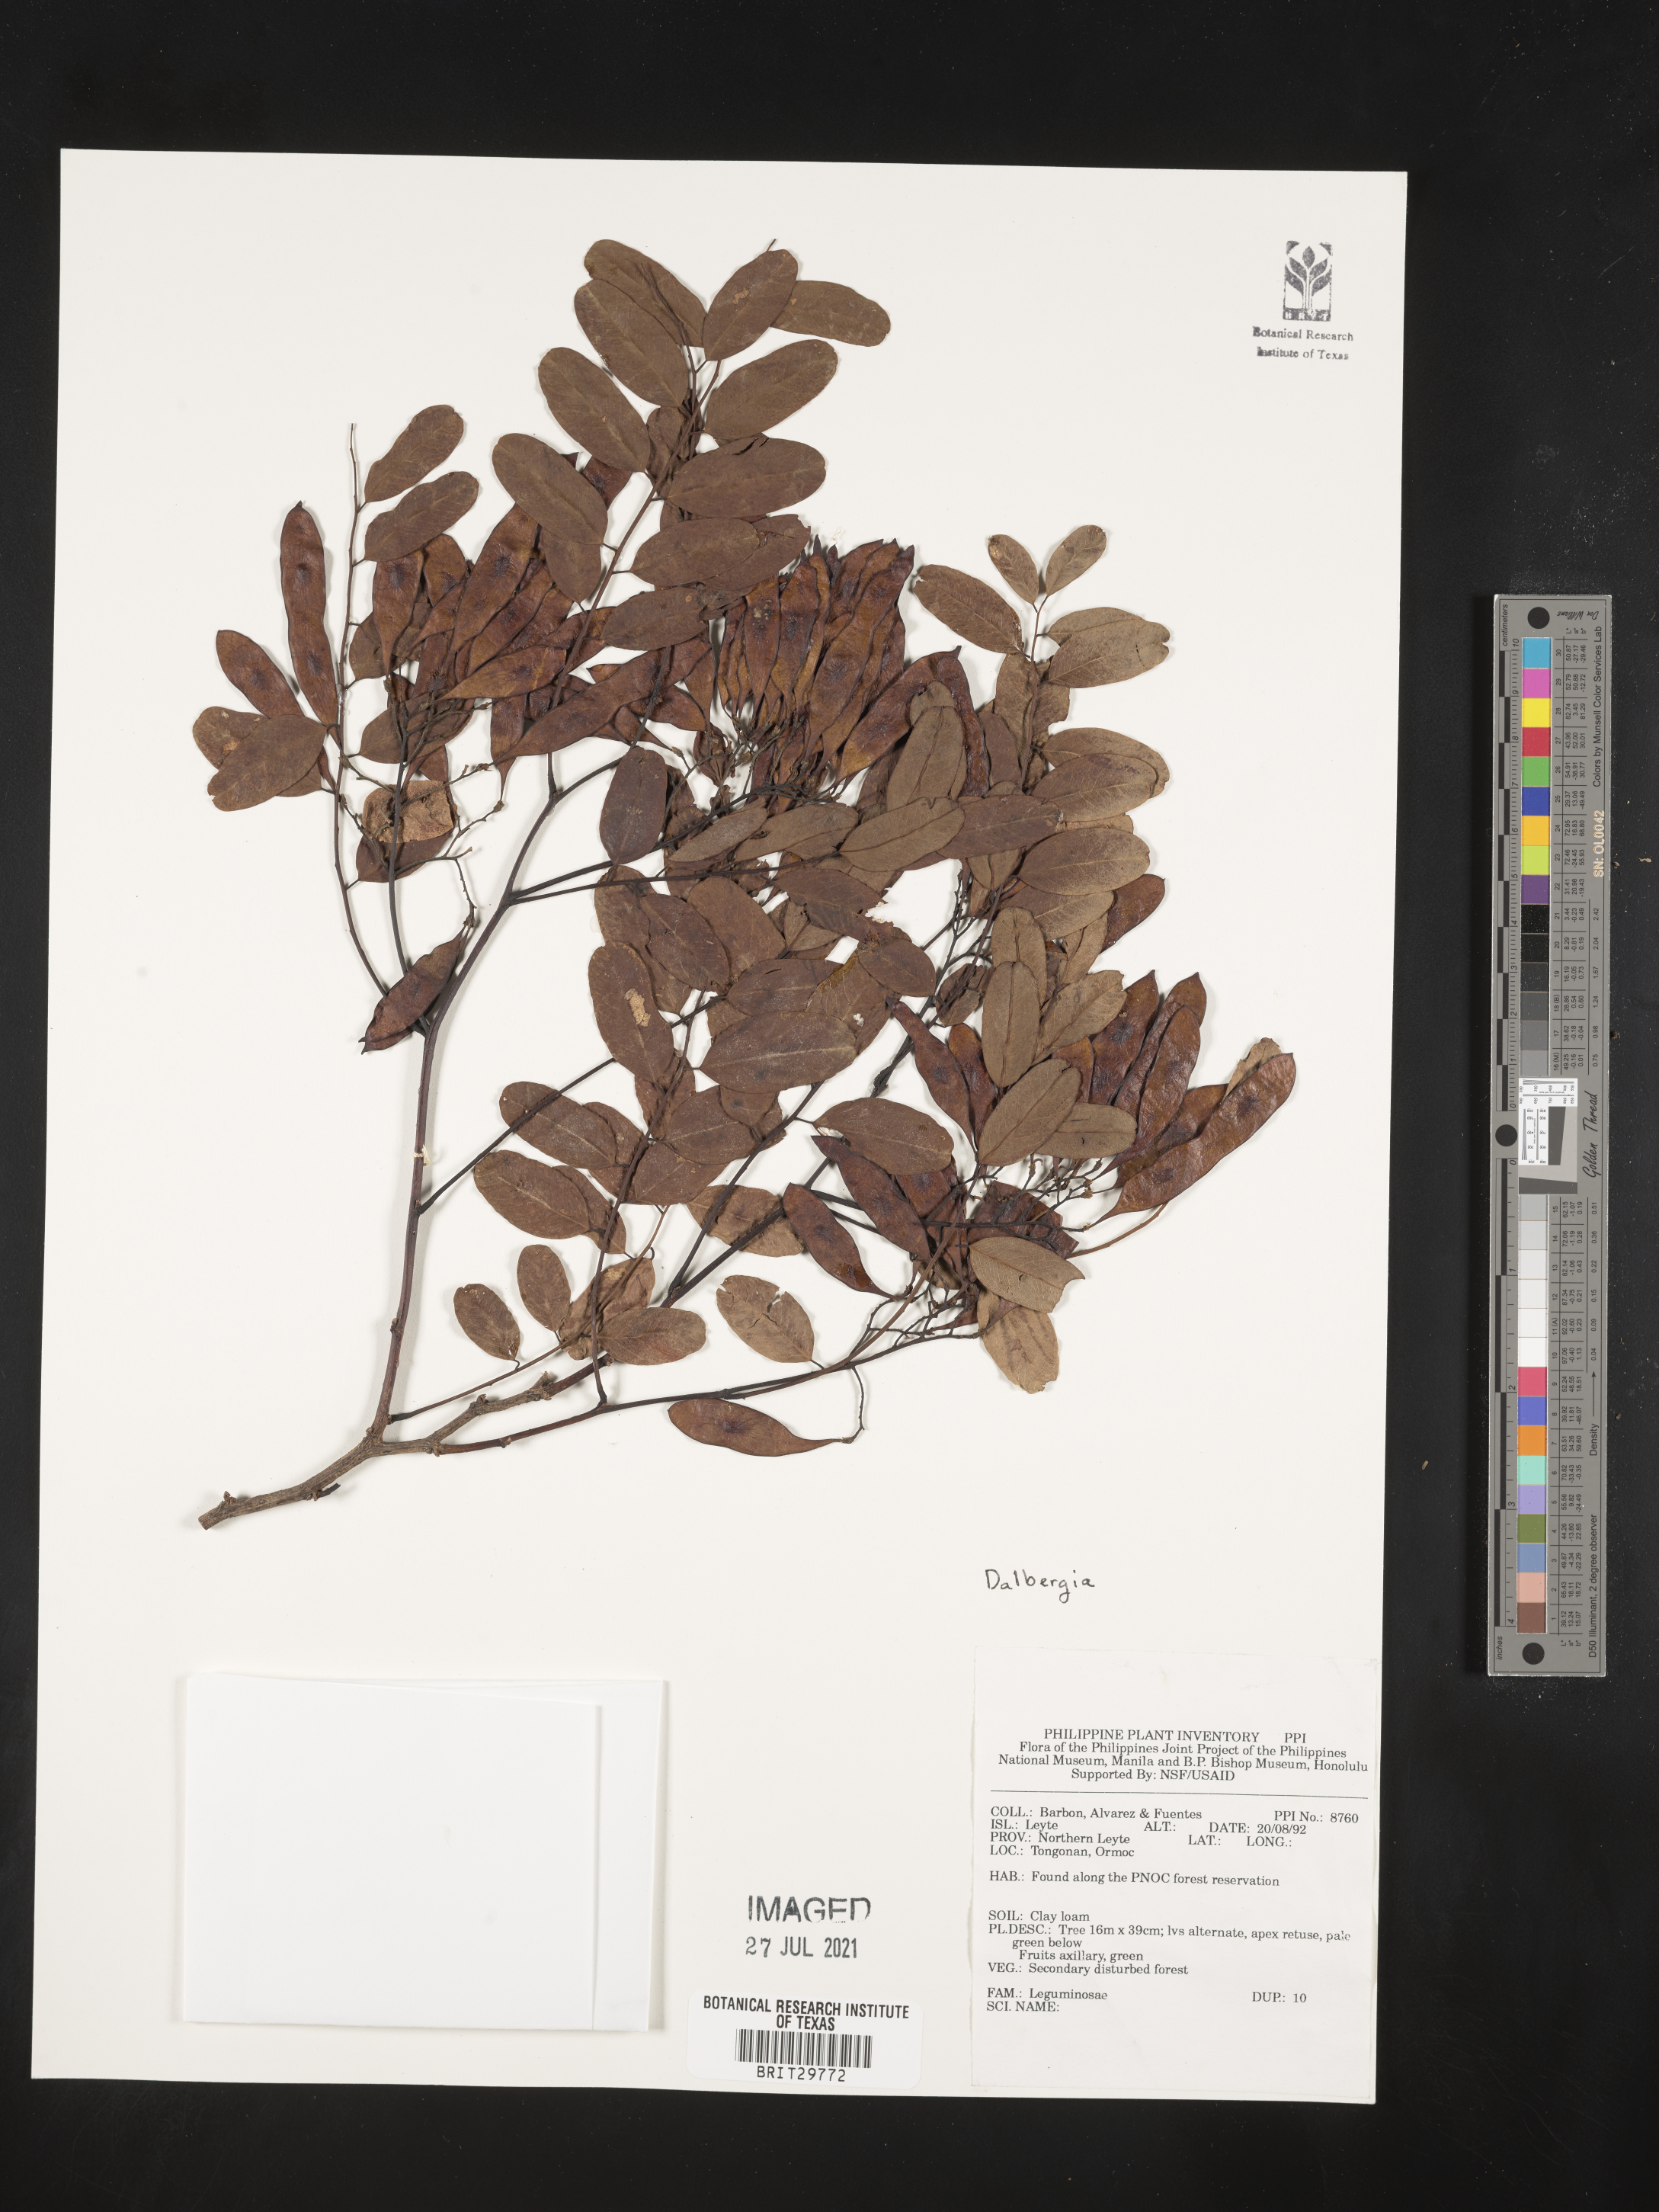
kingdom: Plantae
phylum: Tracheophyta
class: Magnoliopsida
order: Fabales
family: Fabaceae
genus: Dalbergia
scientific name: Dalbergia
